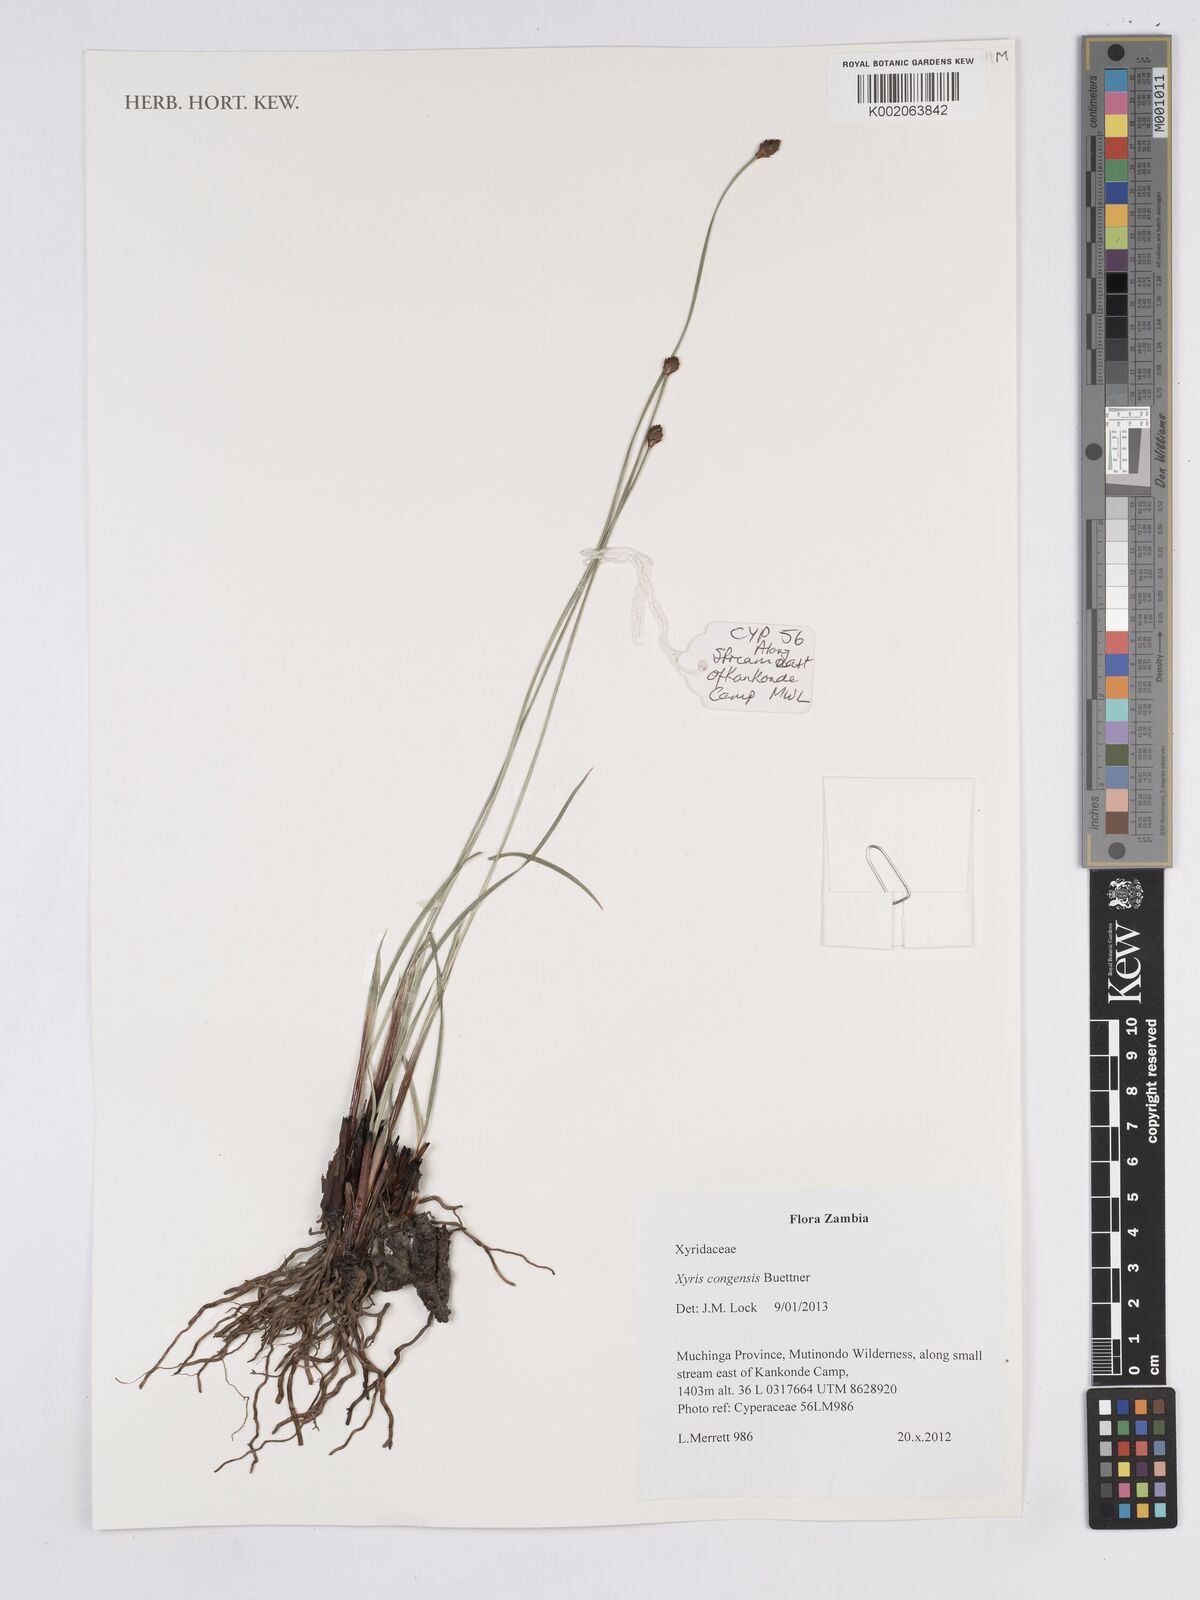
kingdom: Plantae
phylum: Tracheophyta
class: Liliopsida
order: Poales
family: Xyridaceae
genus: Xyris
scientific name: Xyris congensis
